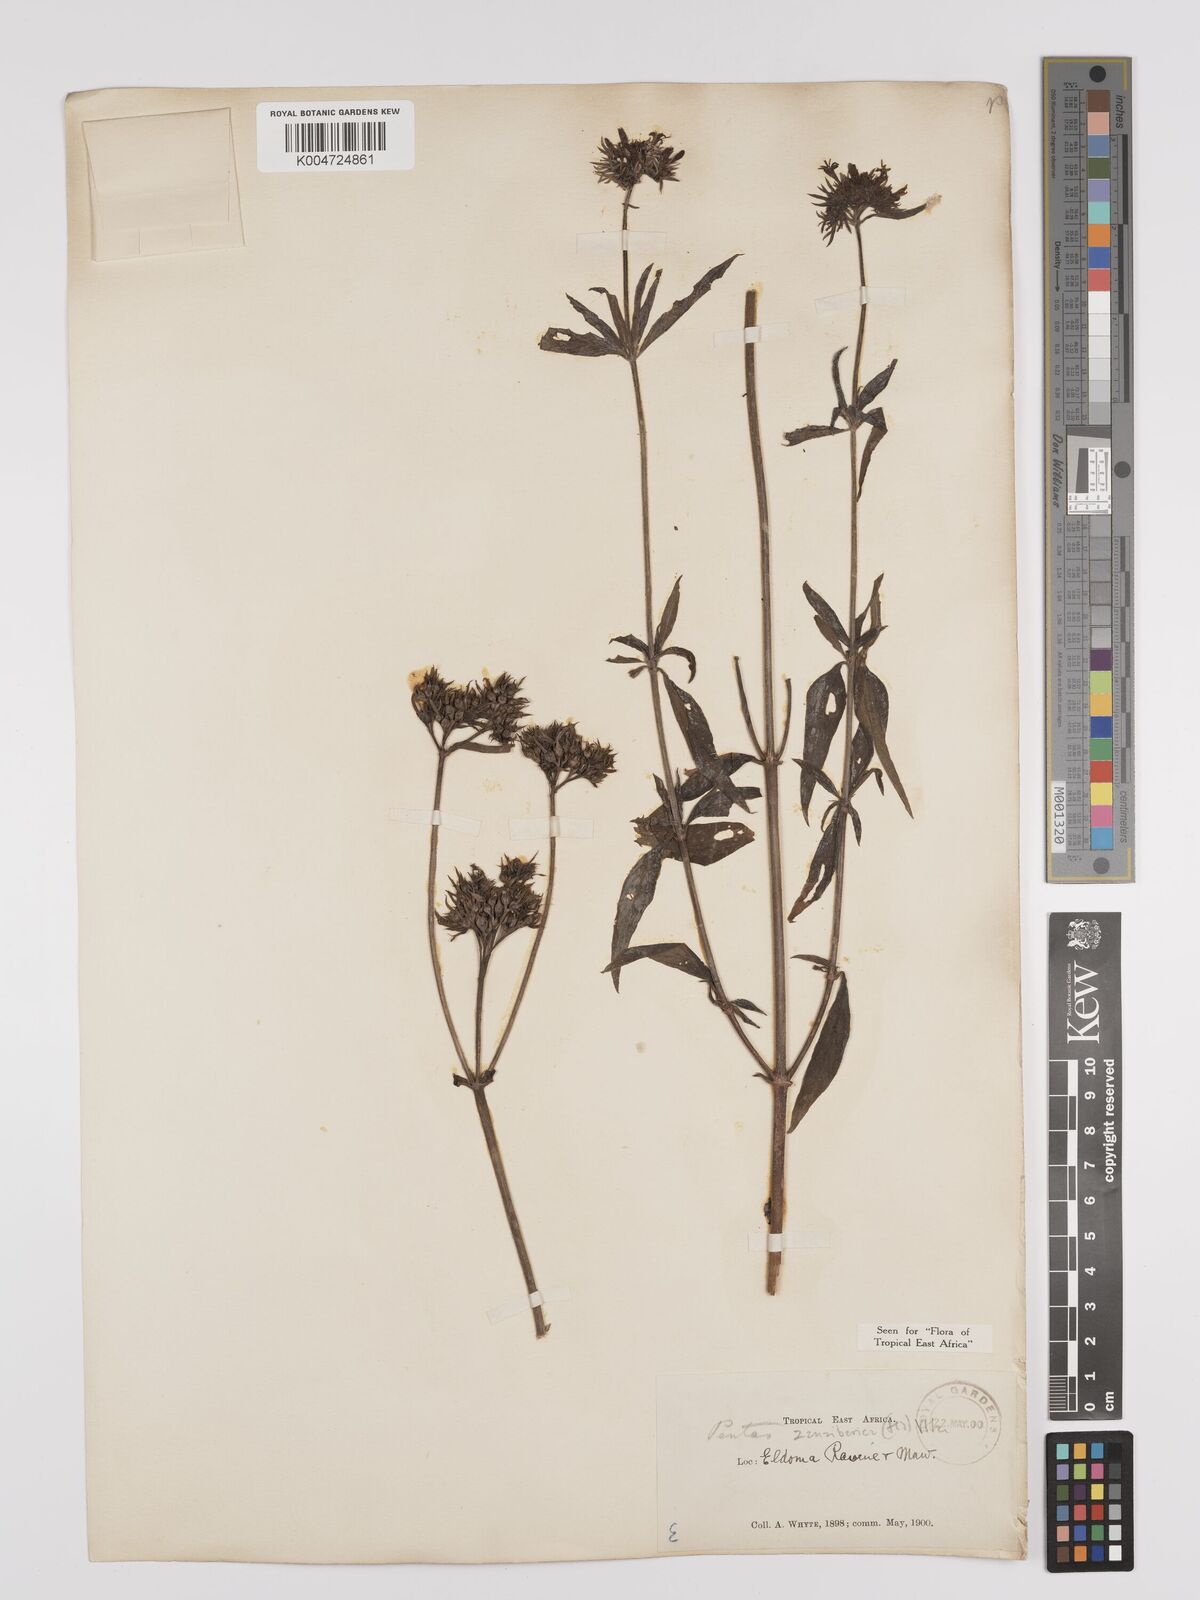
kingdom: Plantae
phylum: Tracheophyta
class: Magnoliopsida
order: Gentianales
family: Rubiaceae
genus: Pentas
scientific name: Pentas zanzibarica
